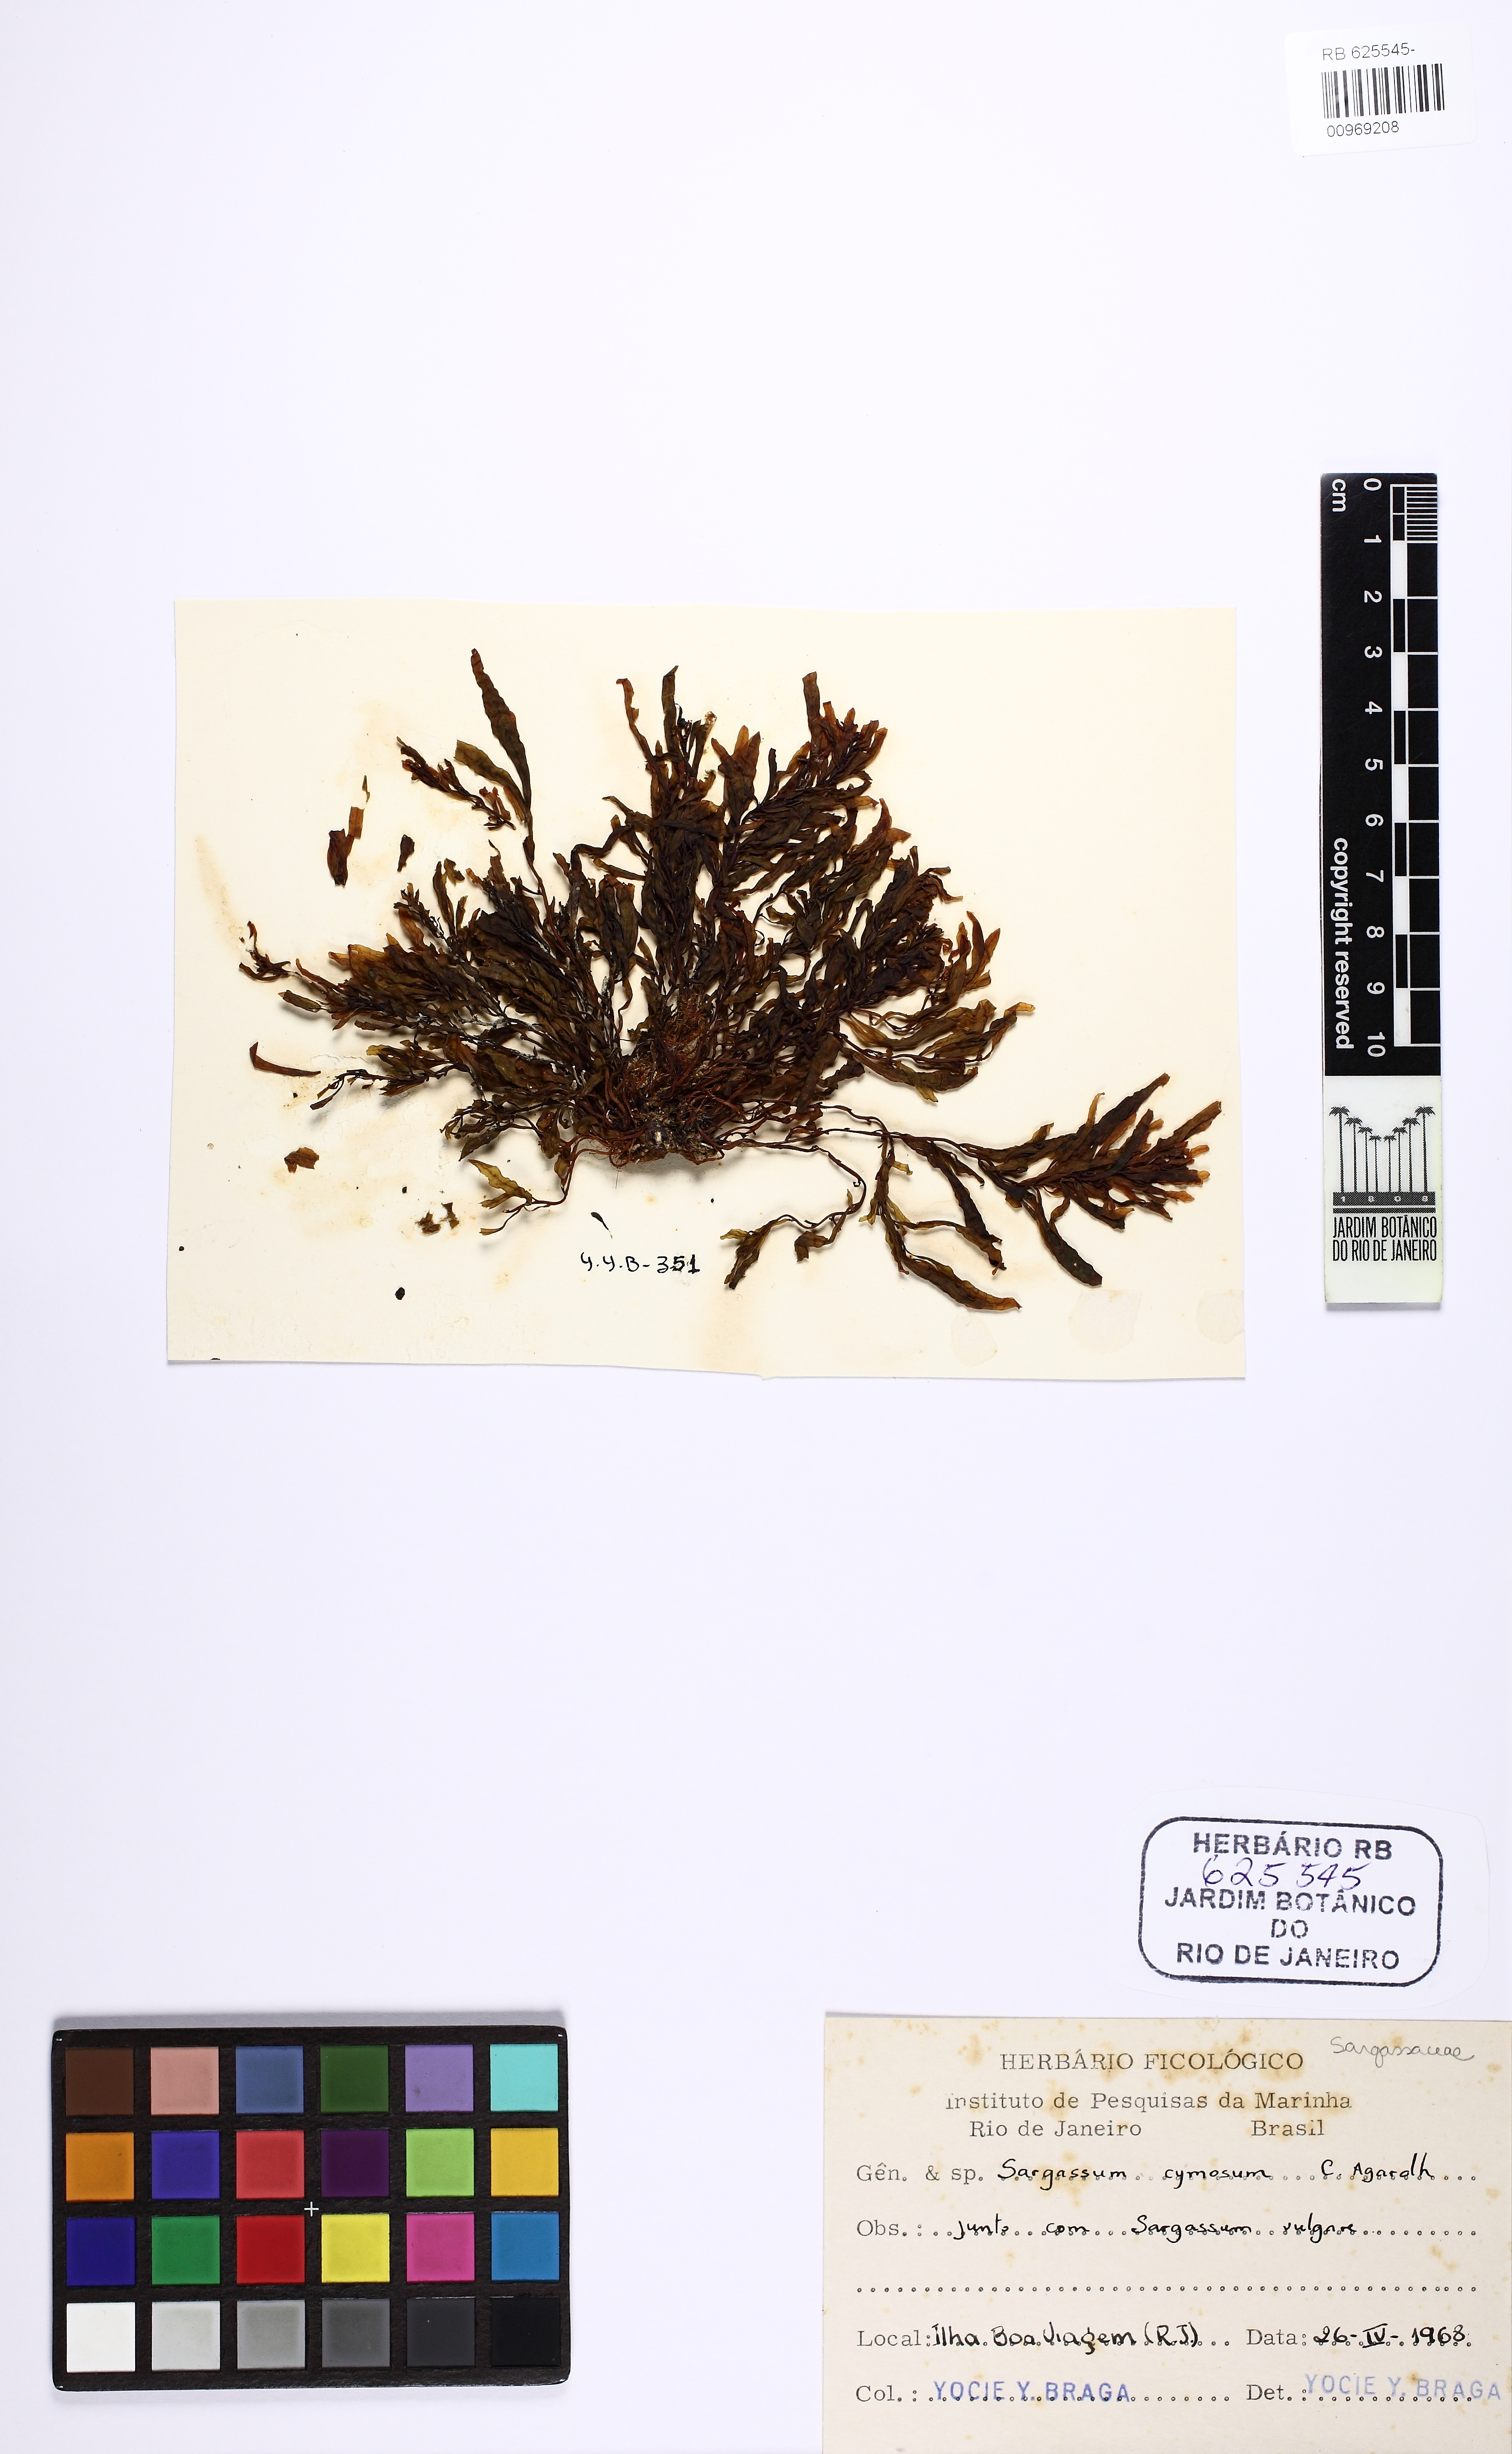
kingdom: Chromista
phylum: Ochrophyta
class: Phaeophyceae
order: Fucales
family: Sargassaceae
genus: Sargassum
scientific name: Sargassum cymosum
